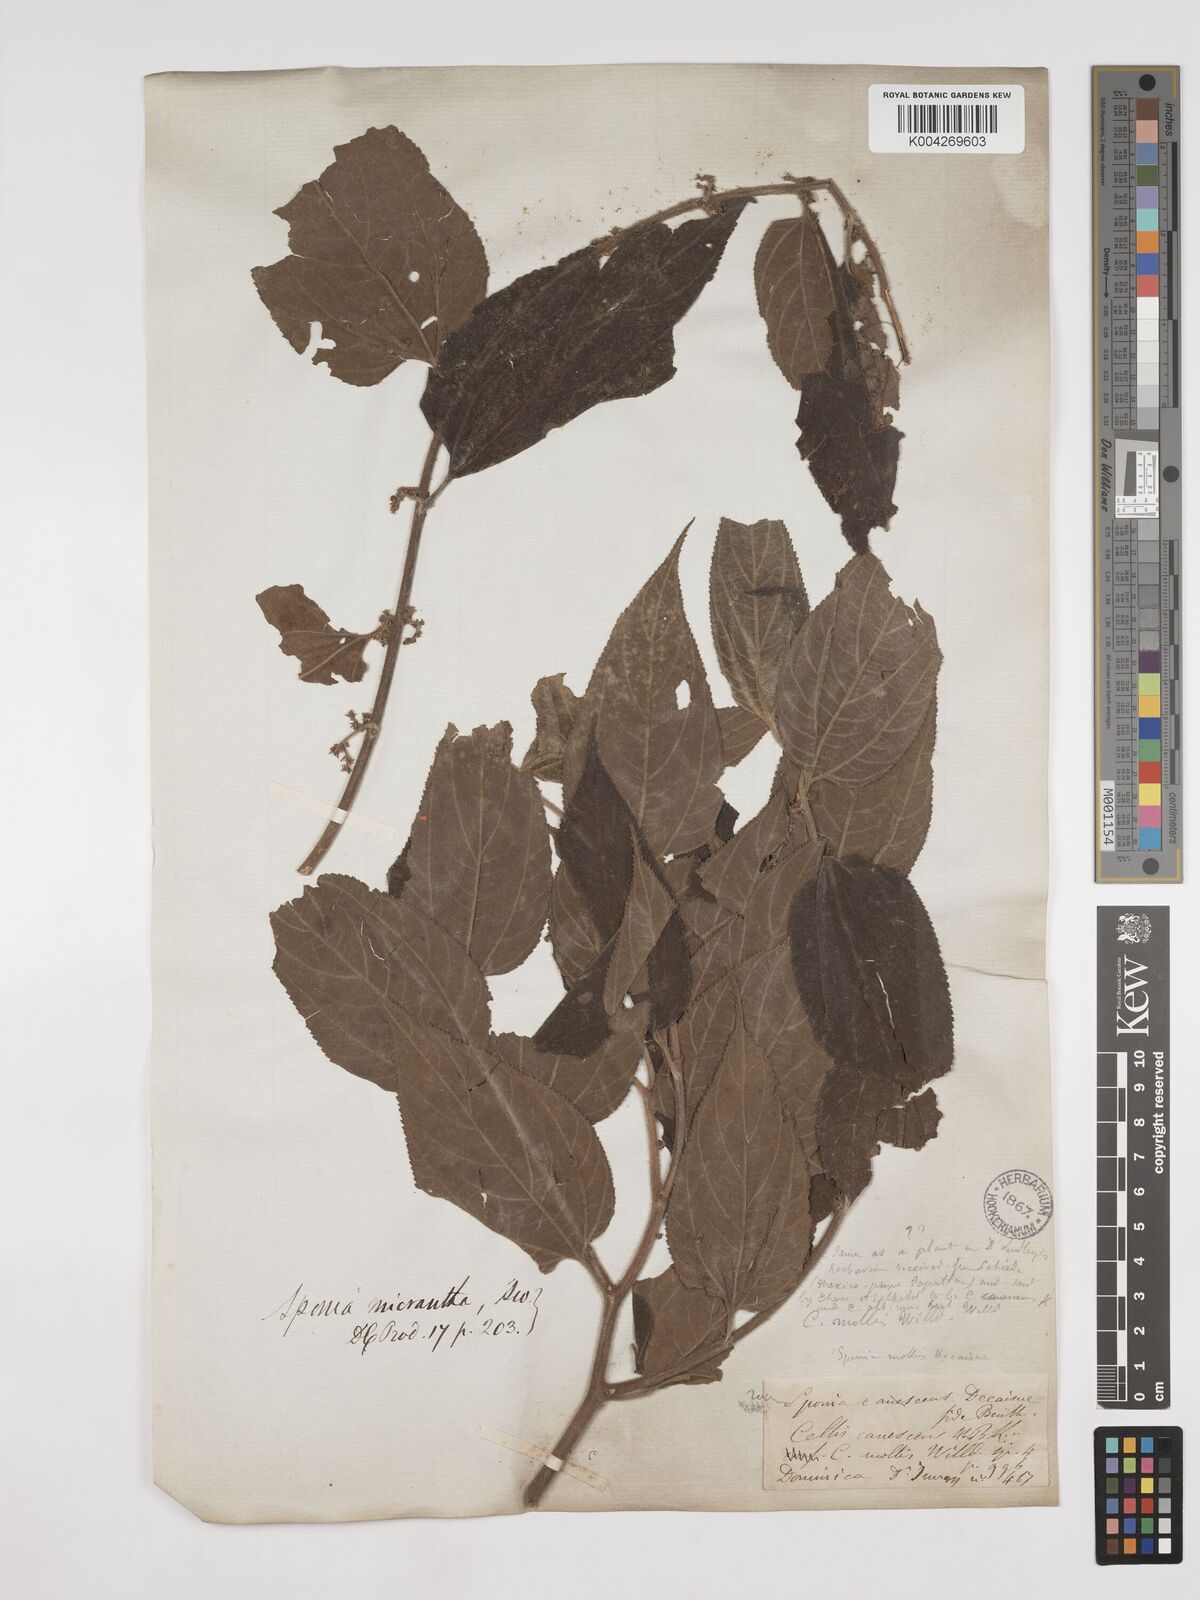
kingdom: Plantae
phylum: Tracheophyta
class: Magnoliopsida
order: Rosales
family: Cannabaceae
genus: Trema
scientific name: Trema micranthum
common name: Jamaican nettletree
